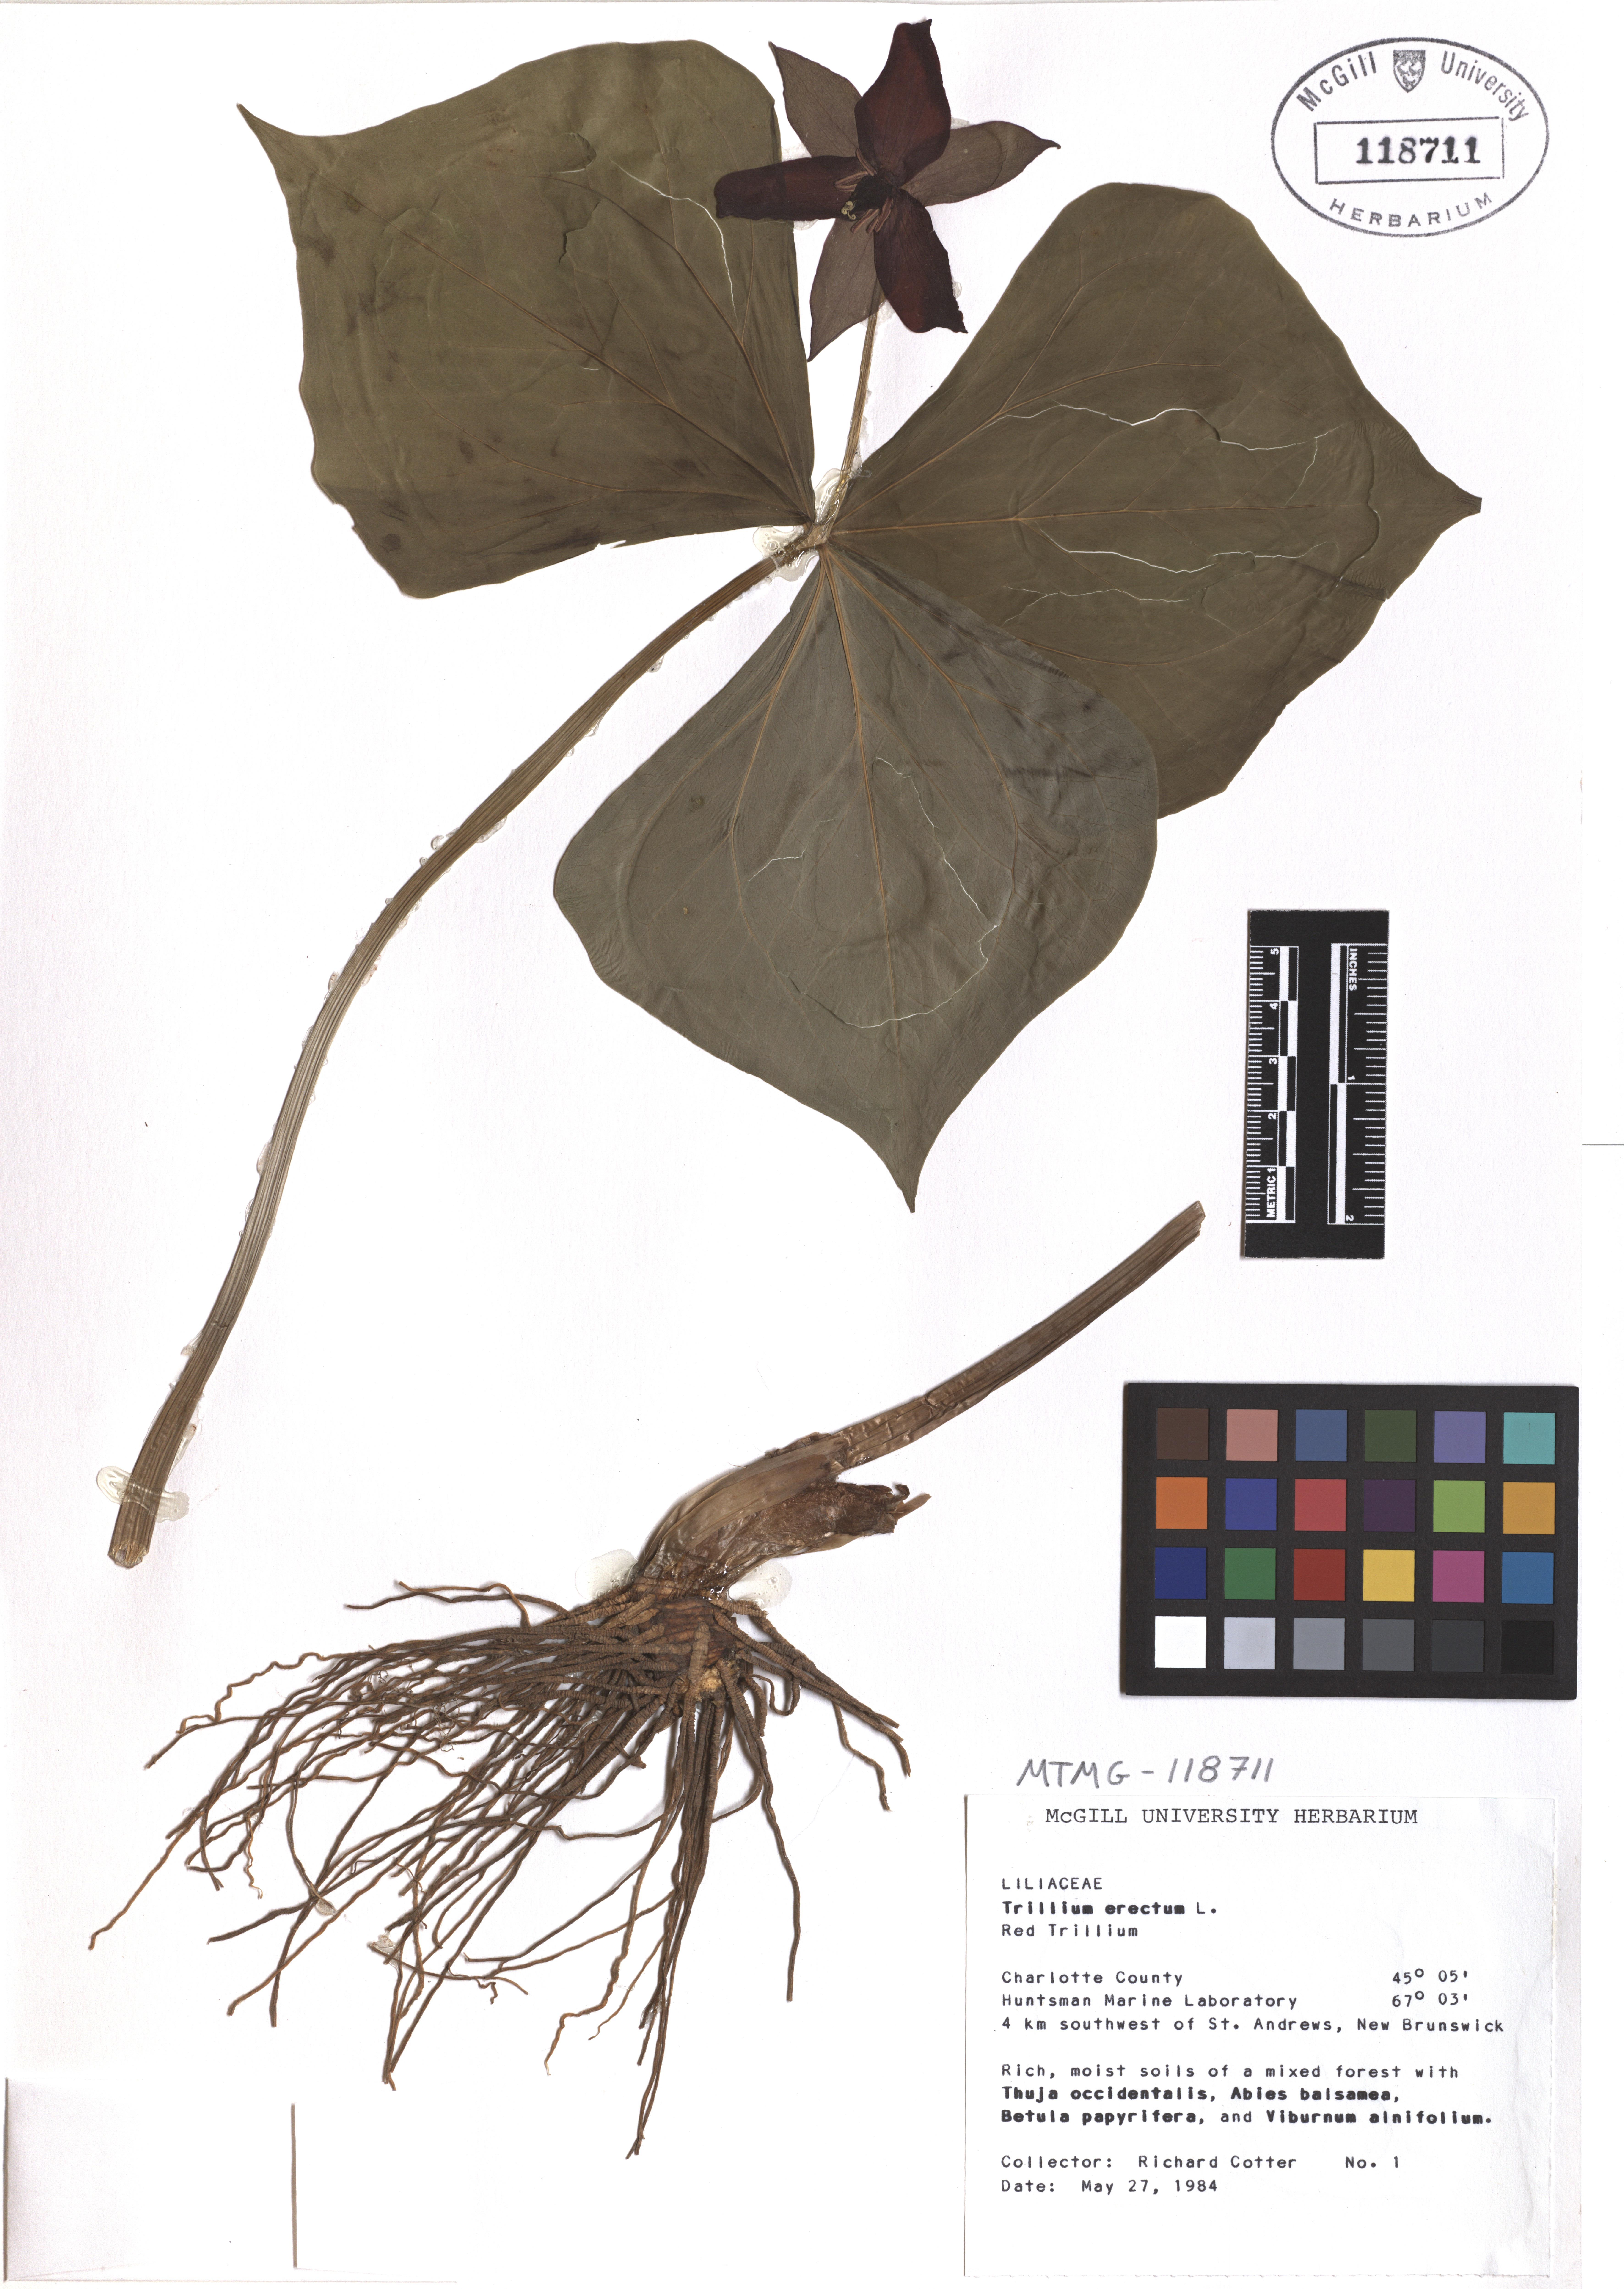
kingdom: Plantae
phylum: Tracheophyta
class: Liliopsida
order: Liliales
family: Melanthiaceae
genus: Trillium
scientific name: Trillium erectum
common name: Purple trillium
